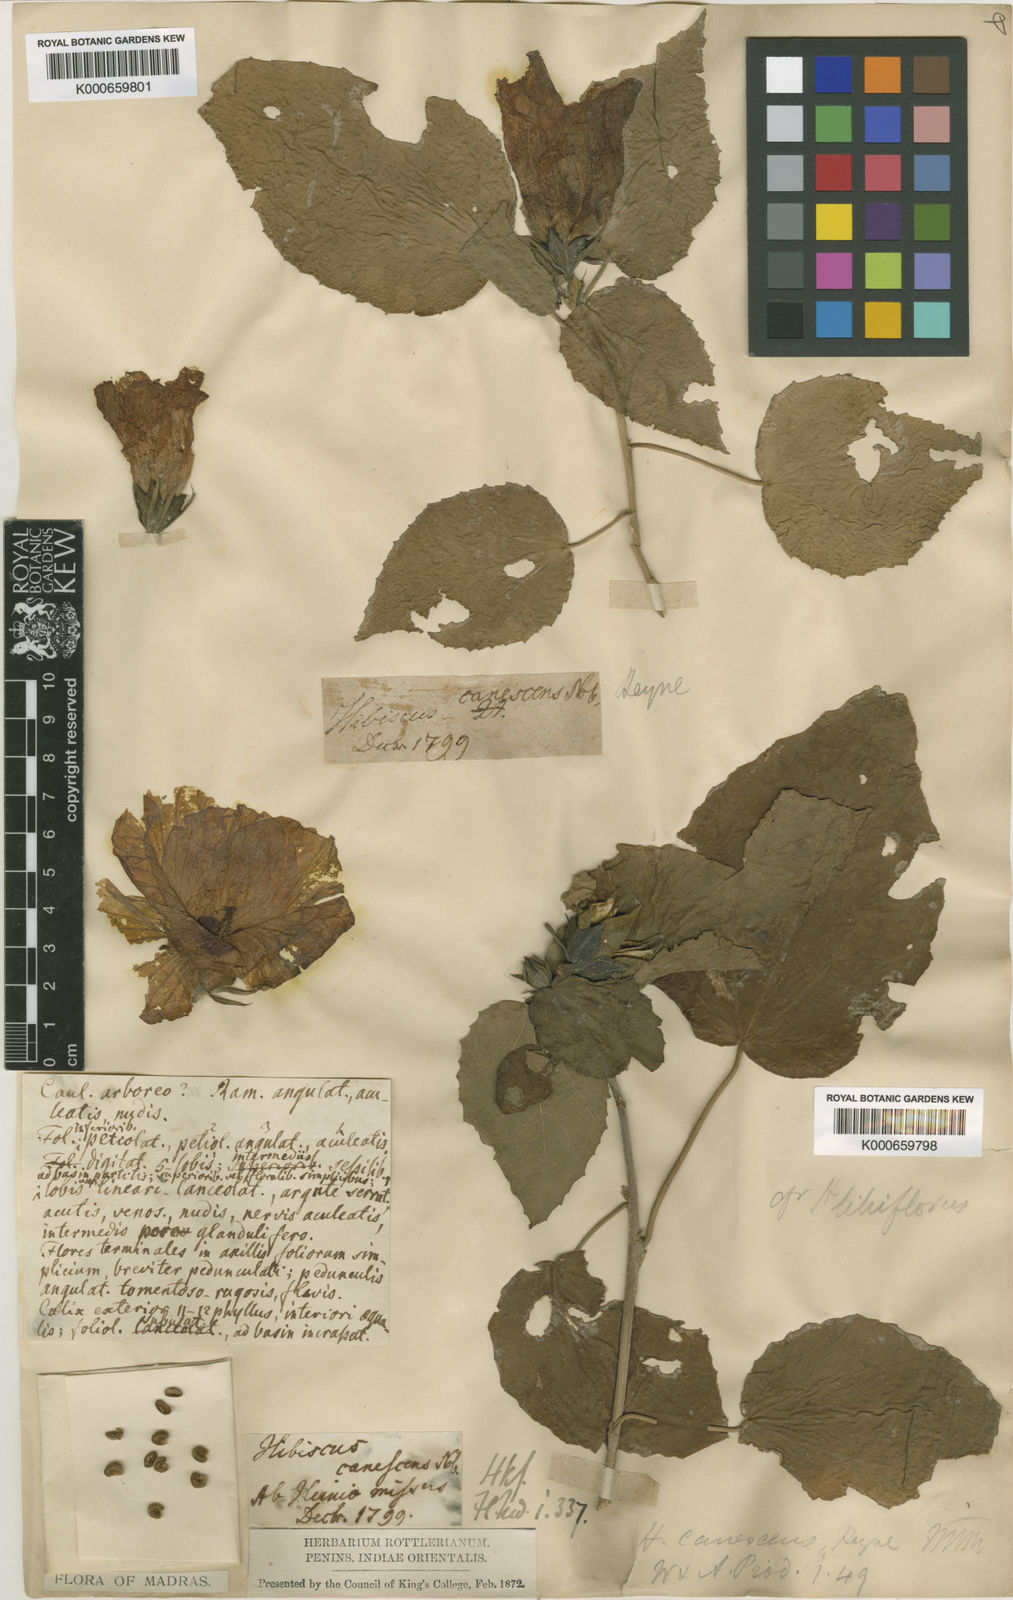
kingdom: Plantae
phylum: Tracheophyta
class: Magnoliopsida
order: Malvales
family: Malvaceae
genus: Hibiscus
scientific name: Hibiscus
